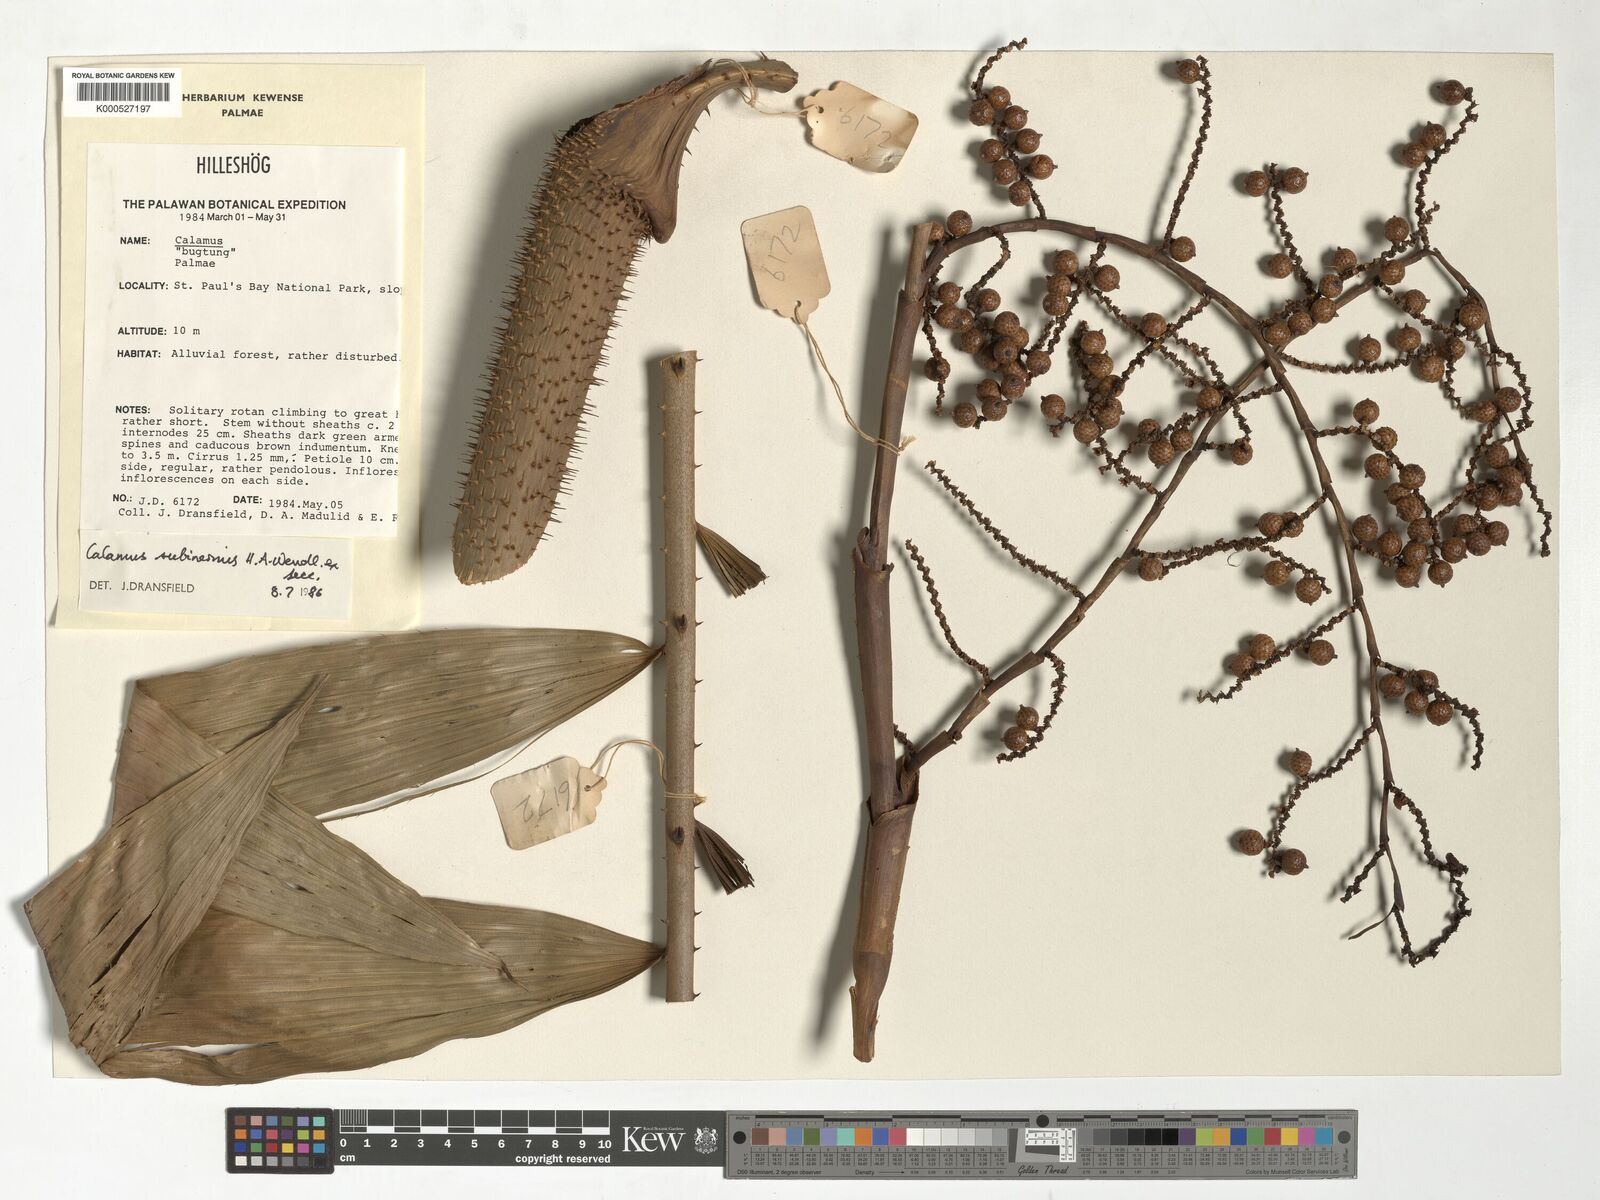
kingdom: Plantae
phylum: Tracheophyta
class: Liliopsida
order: Arecales
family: Arecaceae
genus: Calamus
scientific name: Calamus moseleyanus
